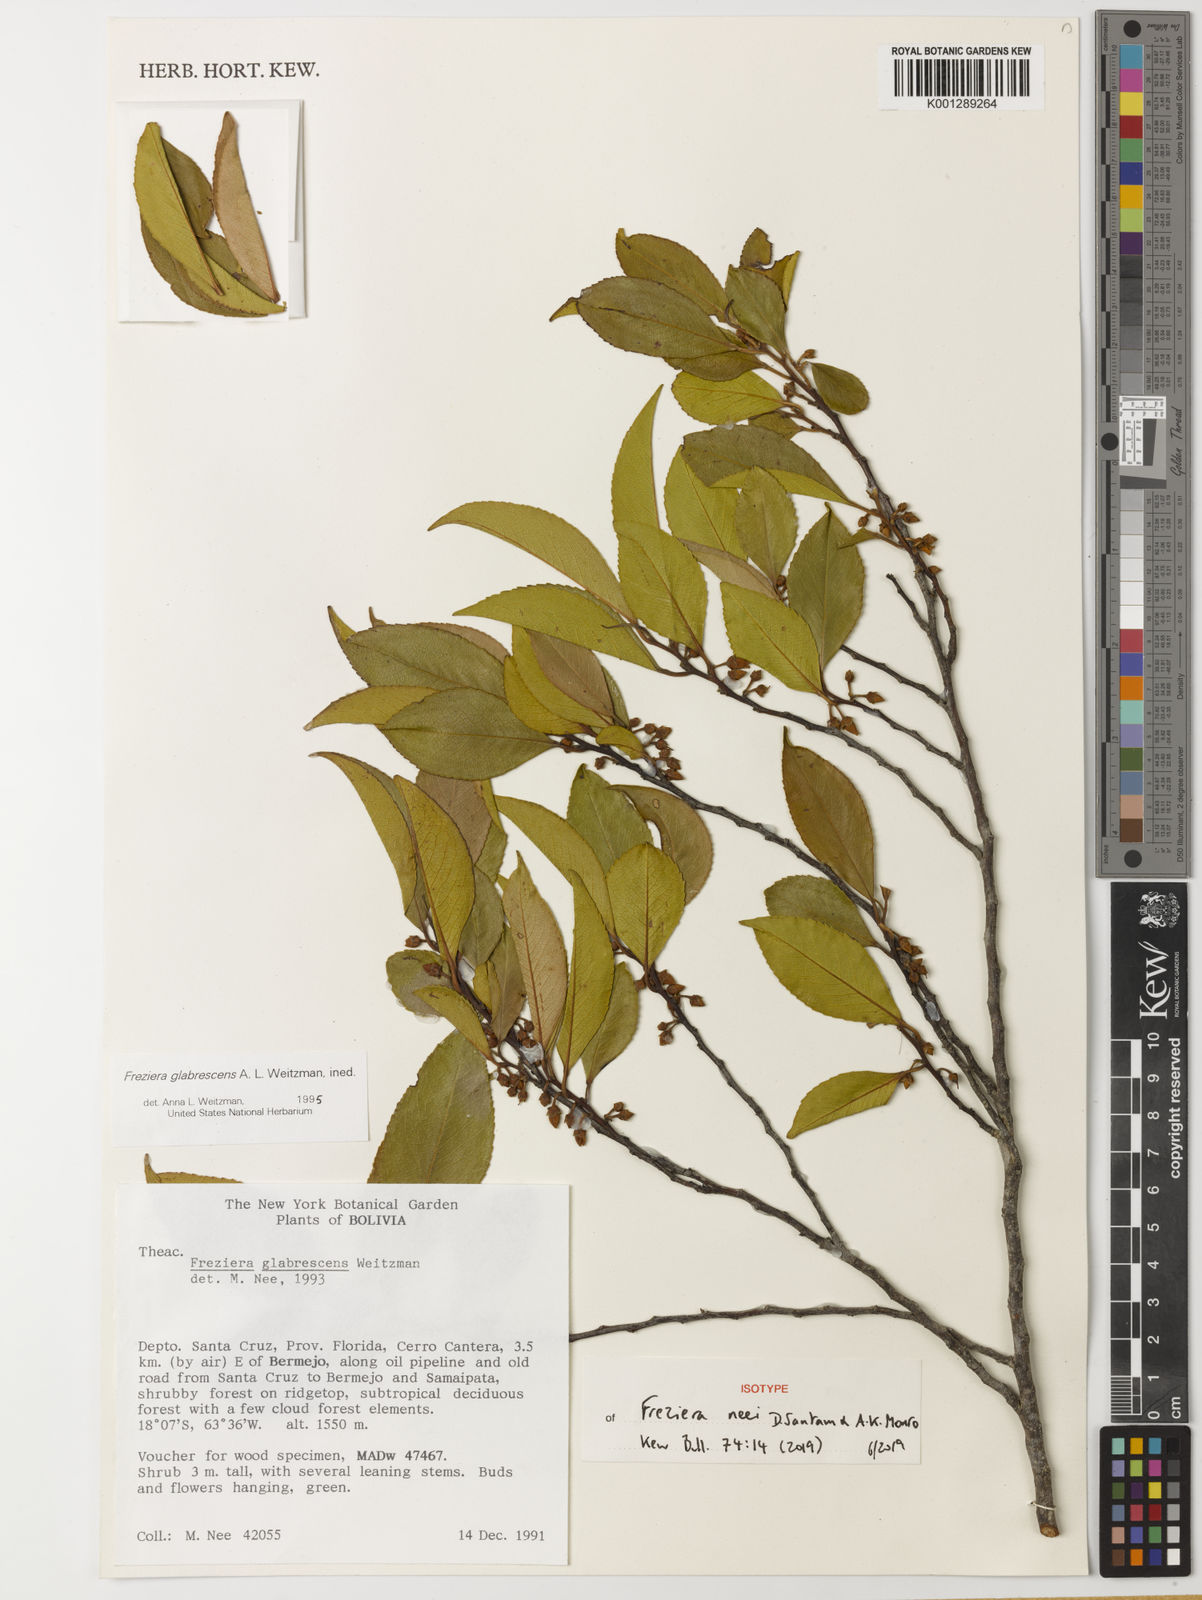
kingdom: Plantae
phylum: Tracheophyta
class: Magnoliopsida
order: Ericales
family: Pentaphylacaceae
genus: Freziera
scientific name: Freziera
